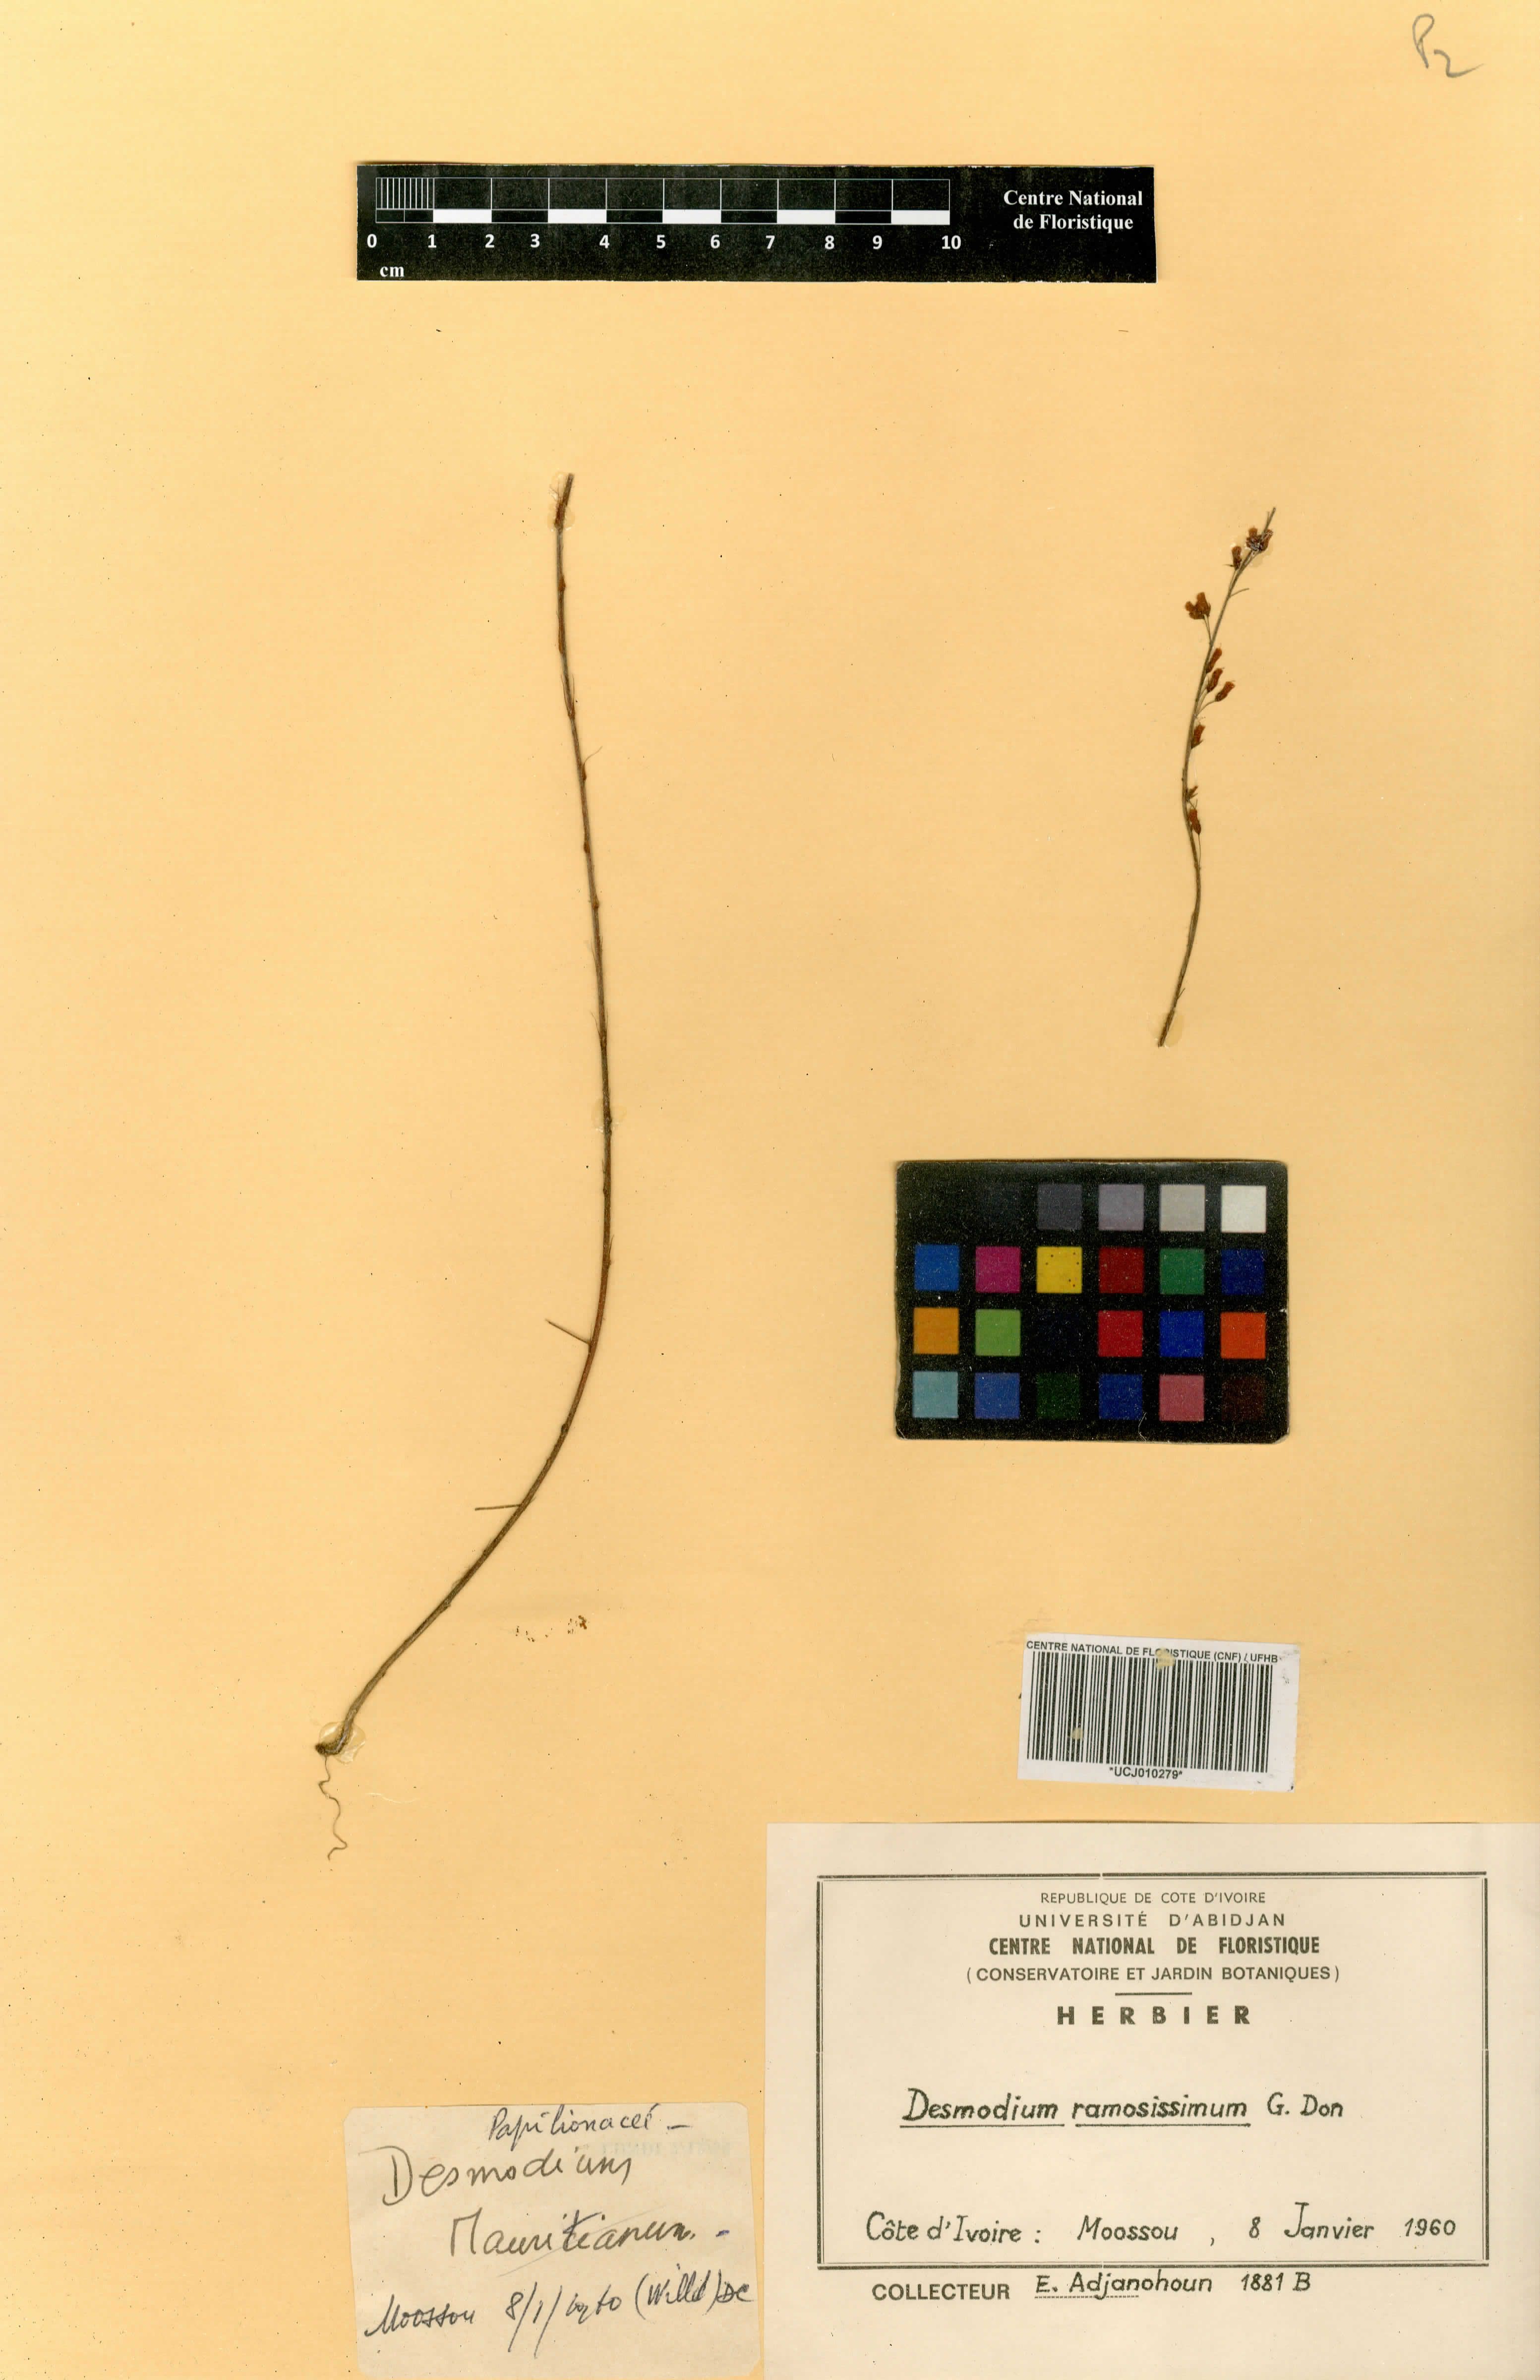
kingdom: Plantae
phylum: Tracheophyta
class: Magnoliopsida
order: Fabales
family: Fabaceae
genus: Grona
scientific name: Grona ramosissima
